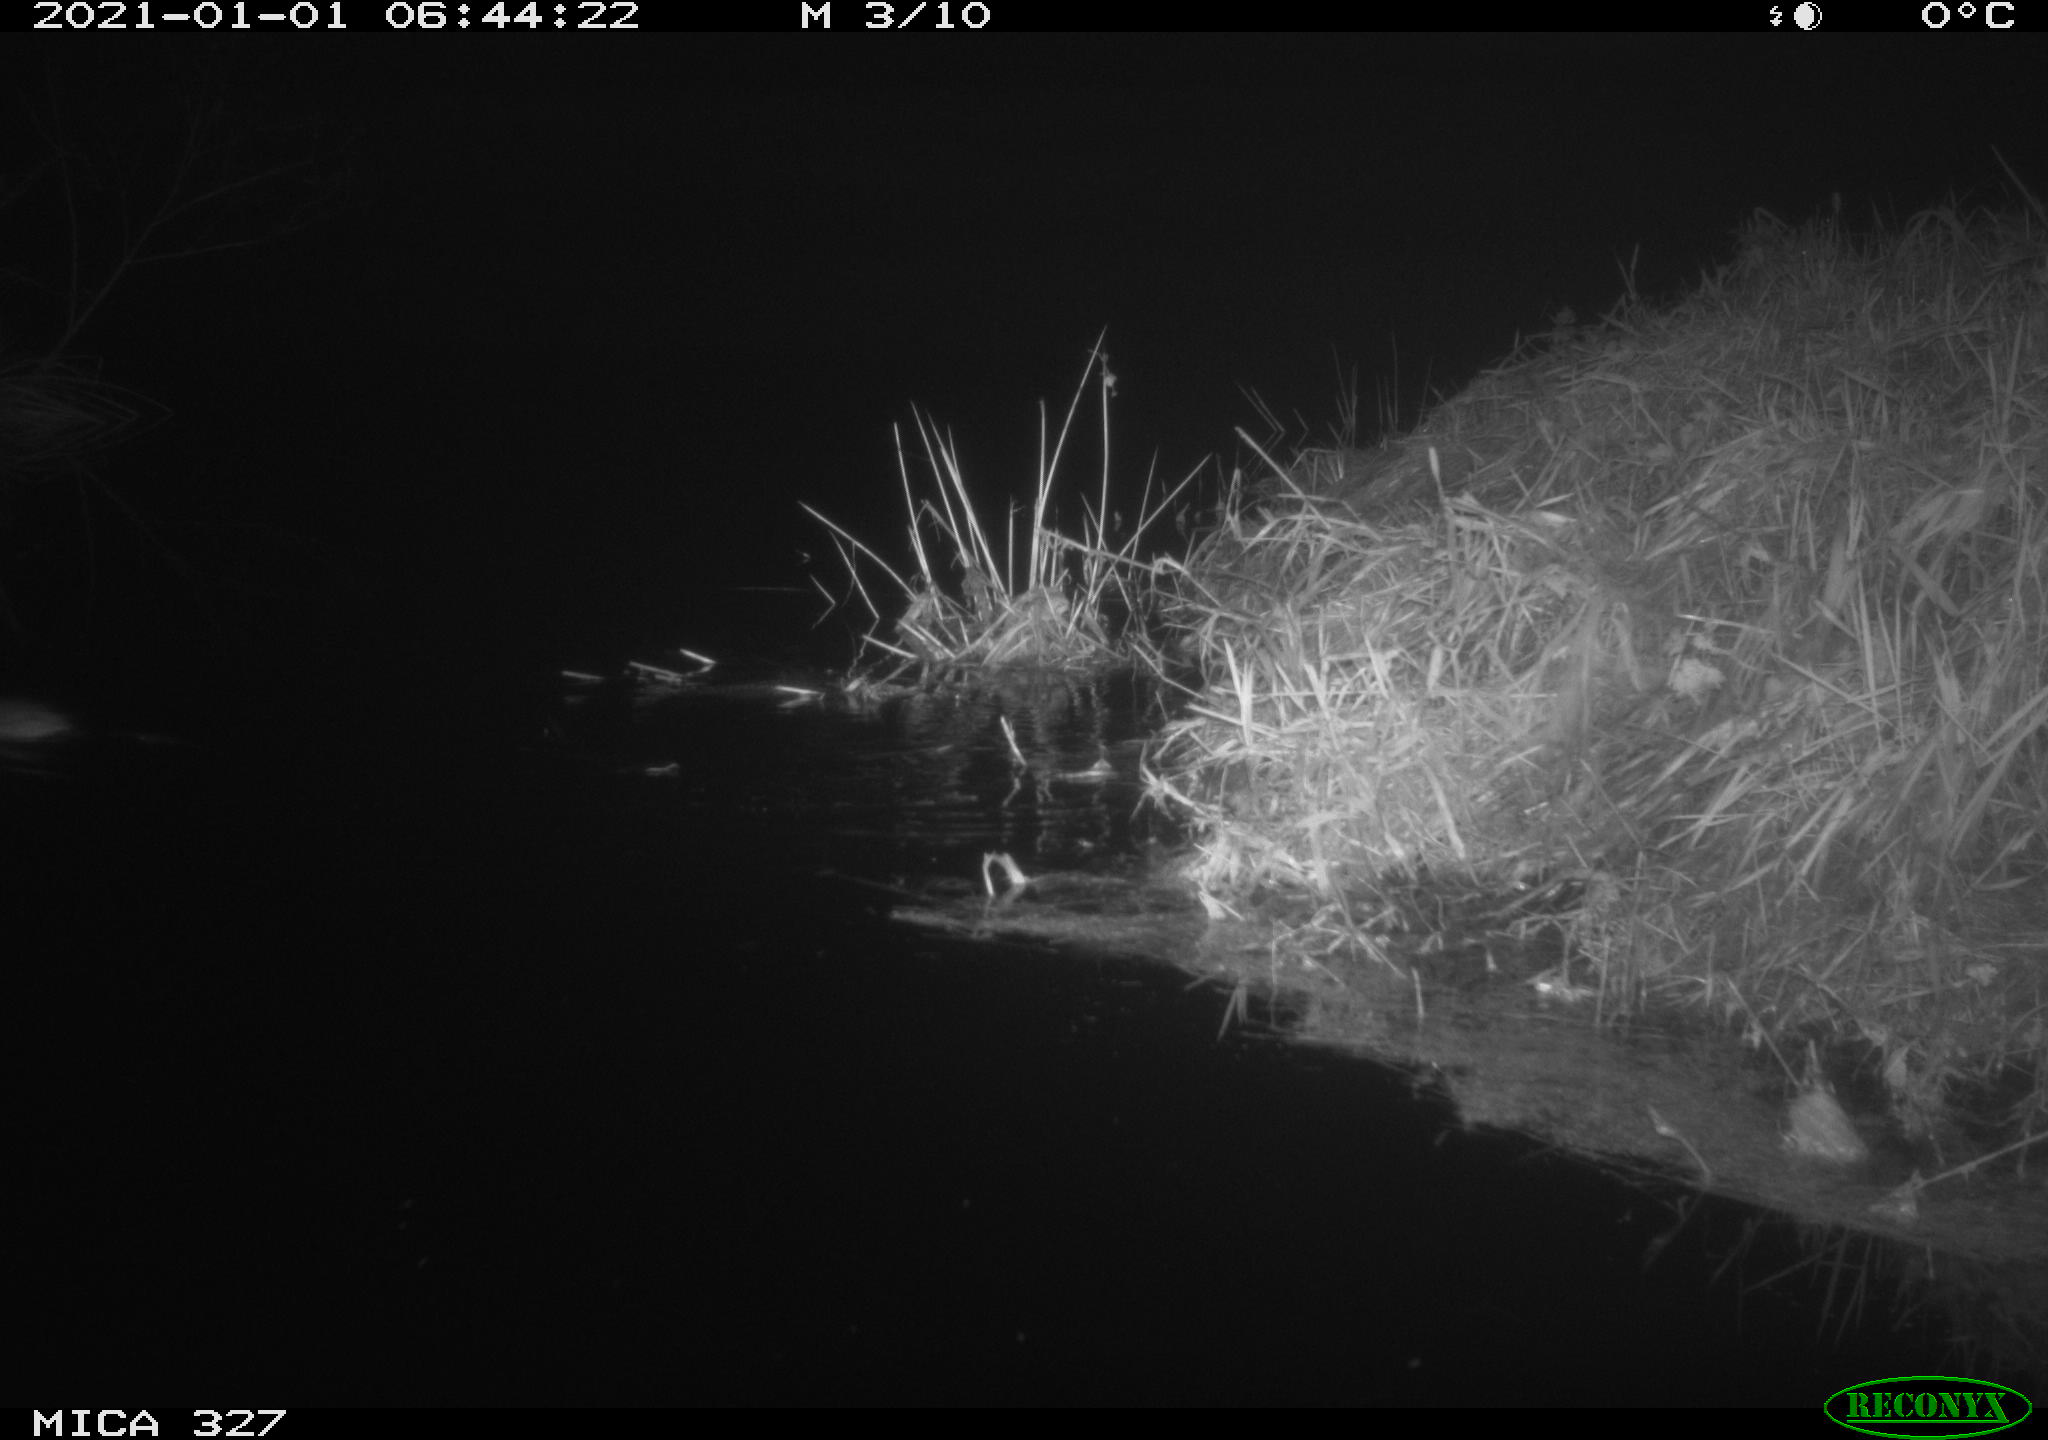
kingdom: Animalia
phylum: Chordata
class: Mammalia
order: Rodentia
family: Cricetidae
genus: Ondatra
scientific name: Ondatra zibethicus
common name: Muskrat
